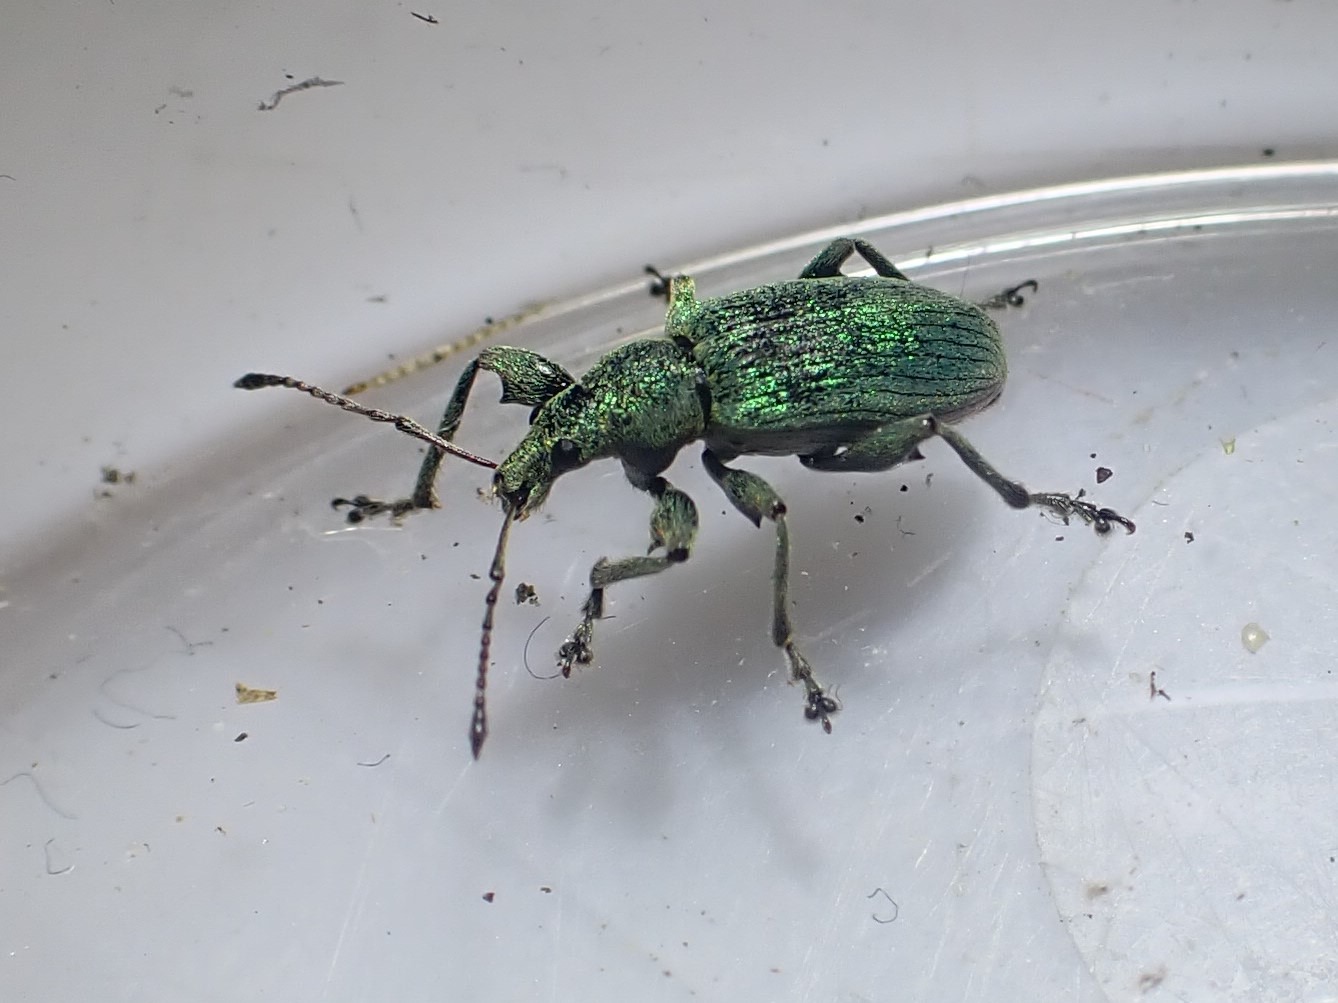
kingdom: Animalia
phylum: Arthropoda
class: Insecta
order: Coleoptera
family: Curculionidae
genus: Phyllobius
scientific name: Phyllobius pomaceus
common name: Nældesnudebille
